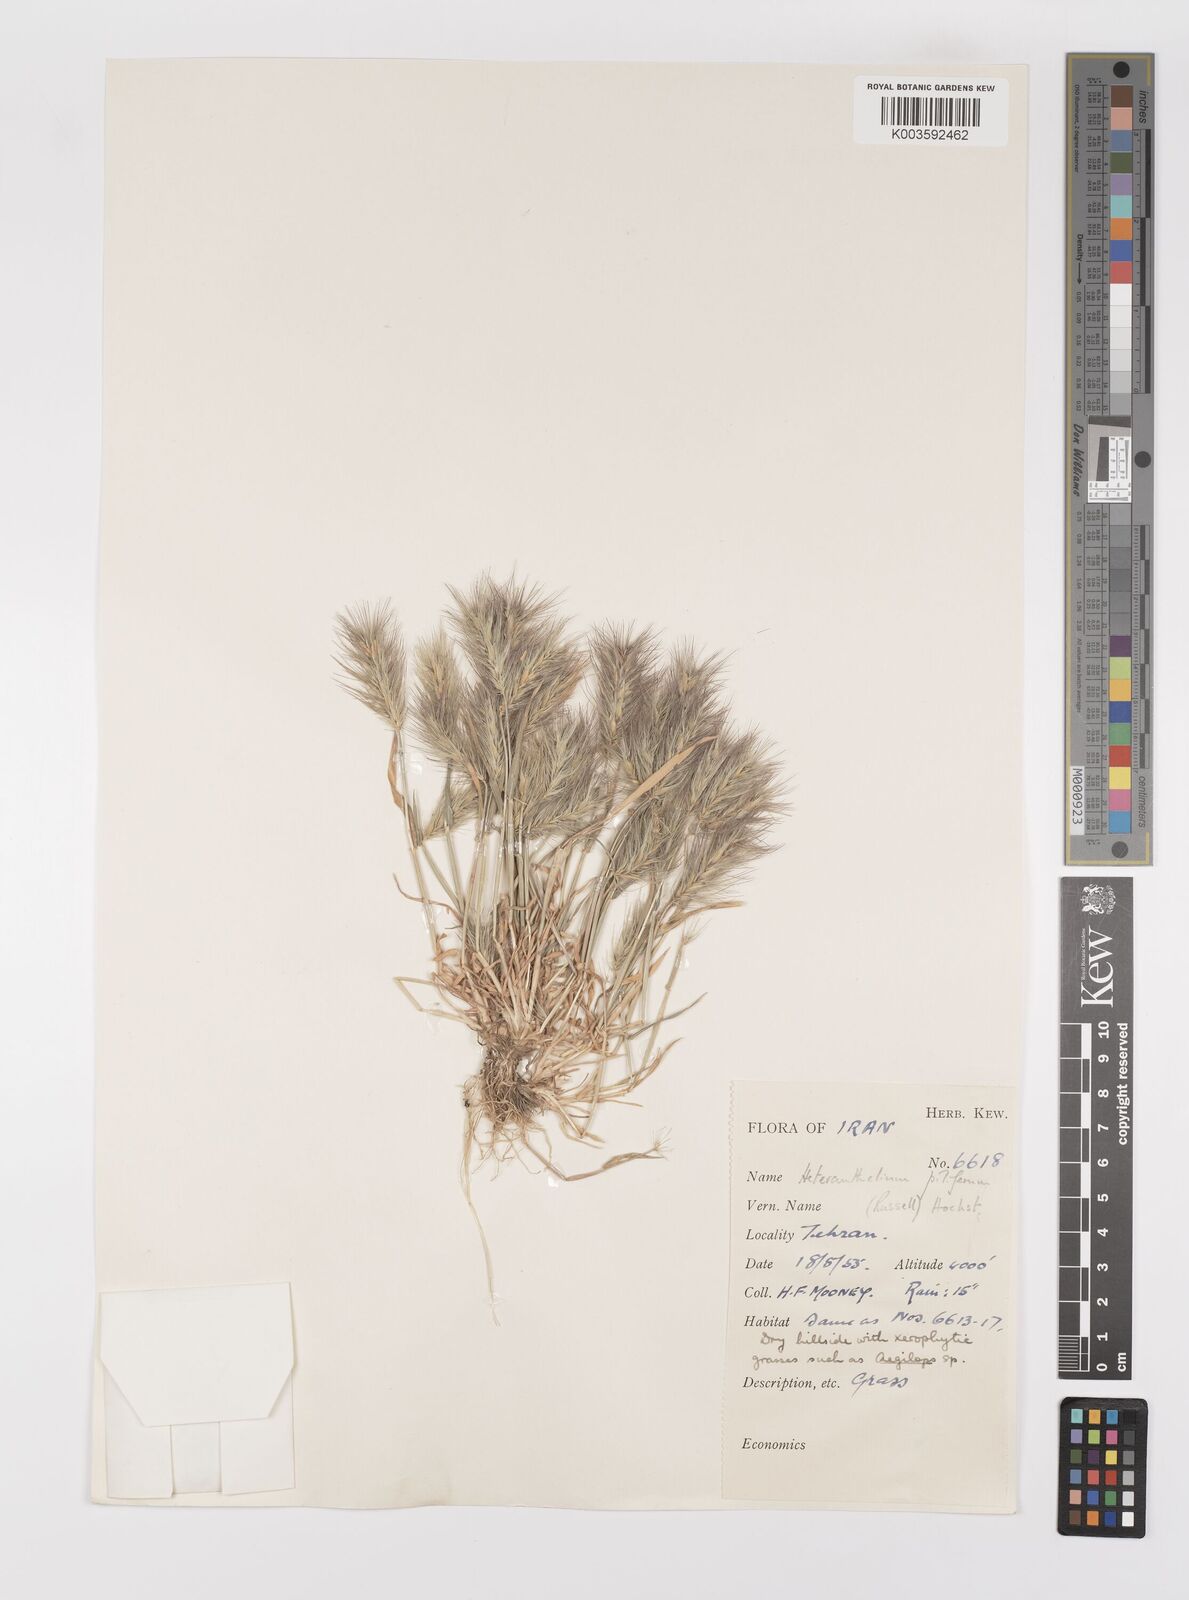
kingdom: Plantae
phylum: Tracheophyta
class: Liliopsida
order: Poales
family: Poaceae
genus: Heteranthelium
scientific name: Heteranthelium piliferum
